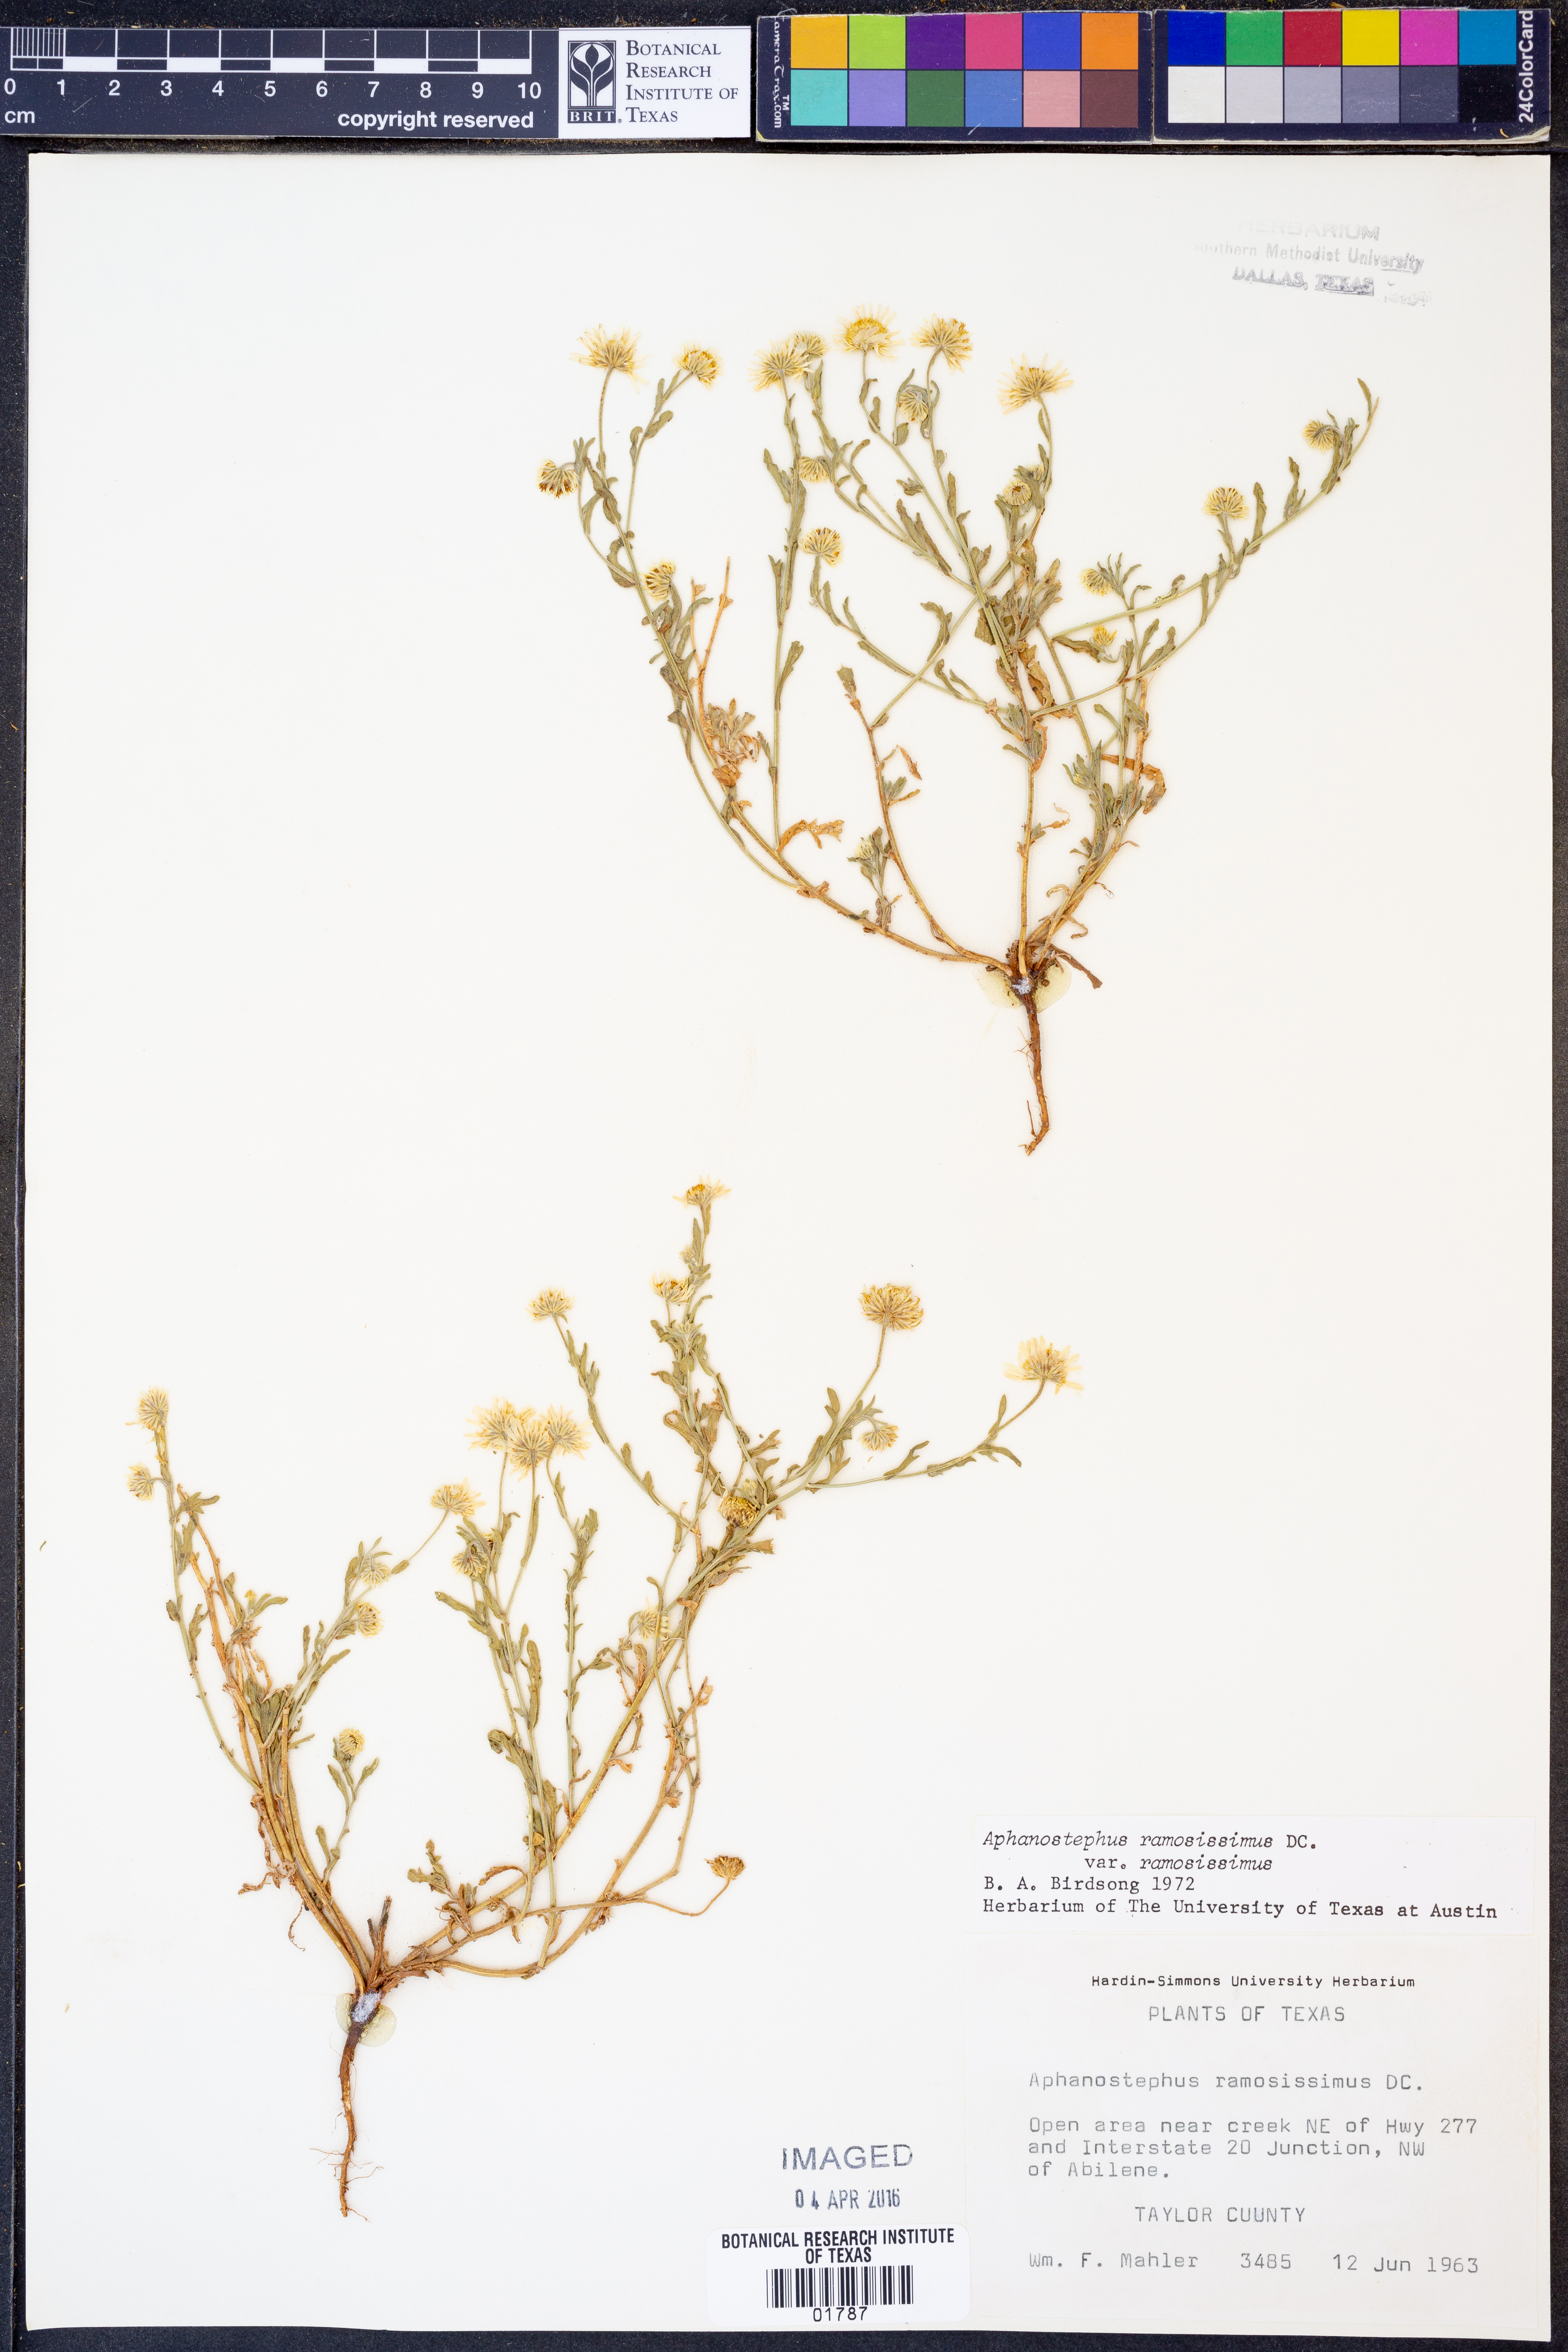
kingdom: Plantae
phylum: Tracheophyta
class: Magnoliopsida
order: Asterales
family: Asteraceae
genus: Aphanostephus
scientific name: Aphanostephus ramosissimus
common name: Plains lazy daisy
